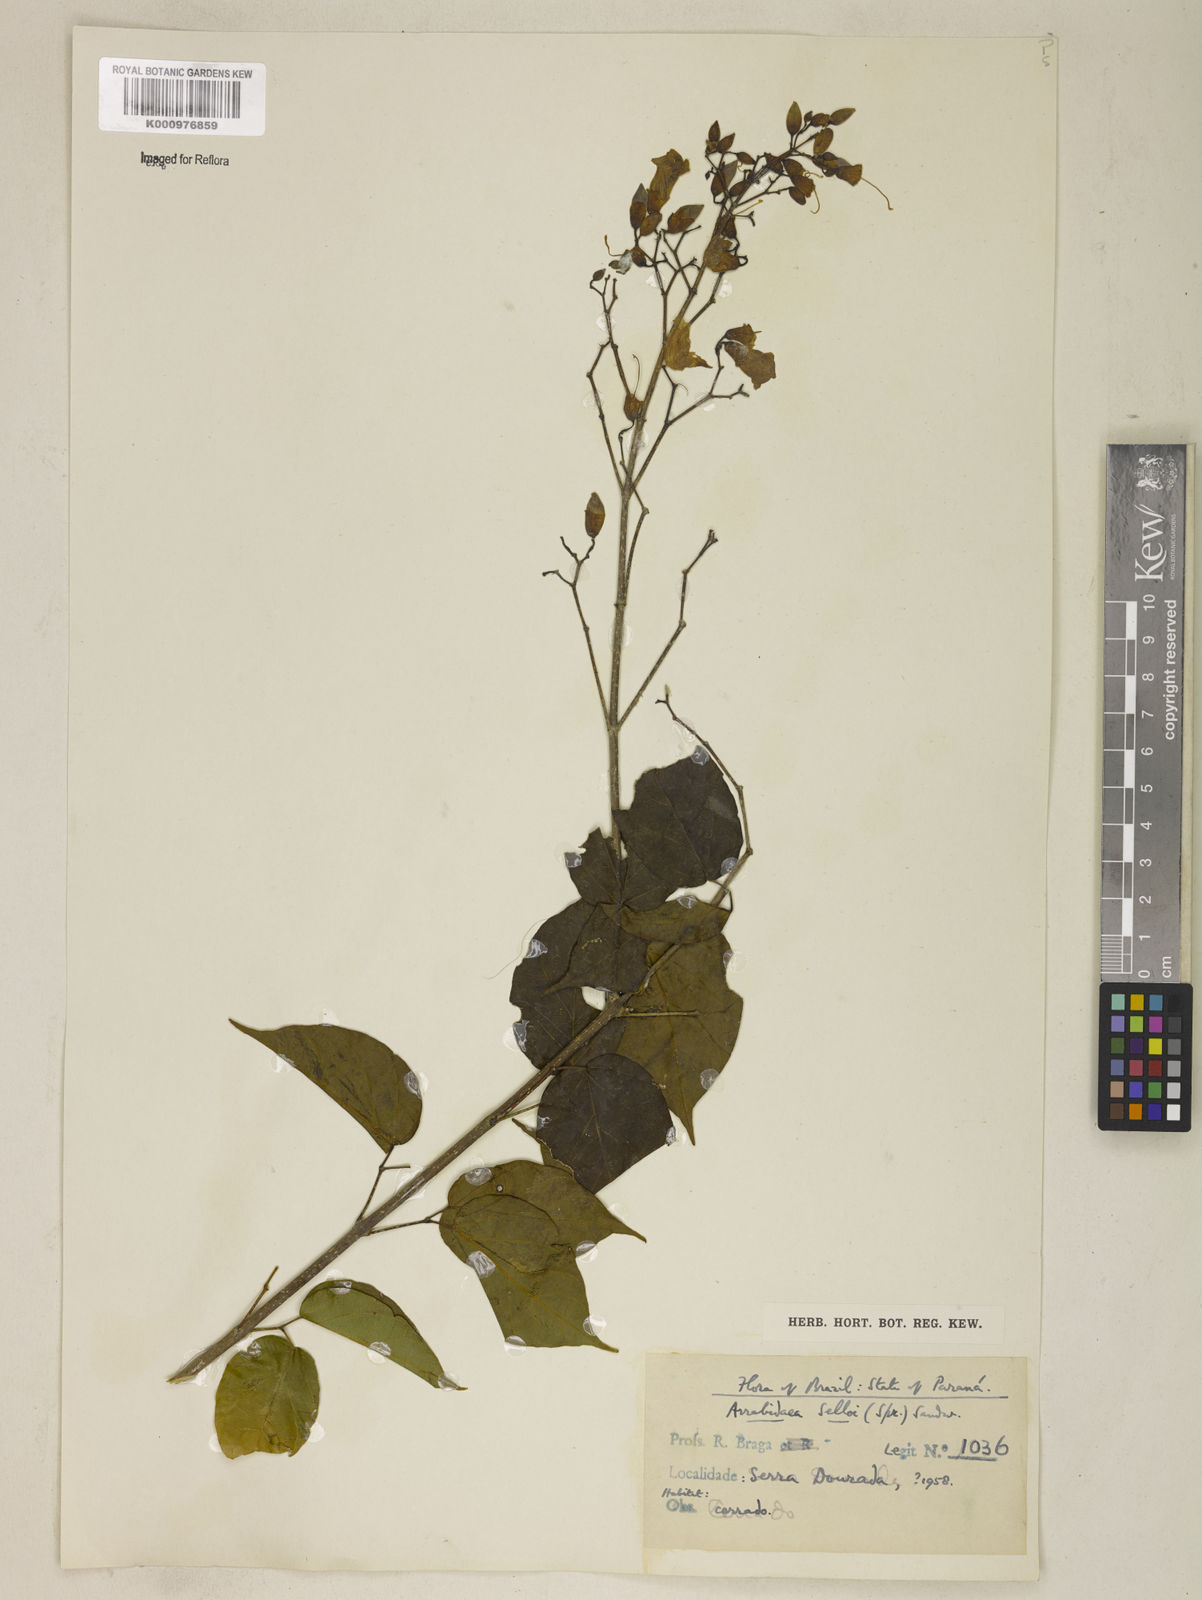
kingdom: Plantae
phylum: Tracheophyta
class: Magnoliopsida
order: Lamiales
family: Bignoniaceae
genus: Tanaecium
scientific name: Tanaecium selloi
